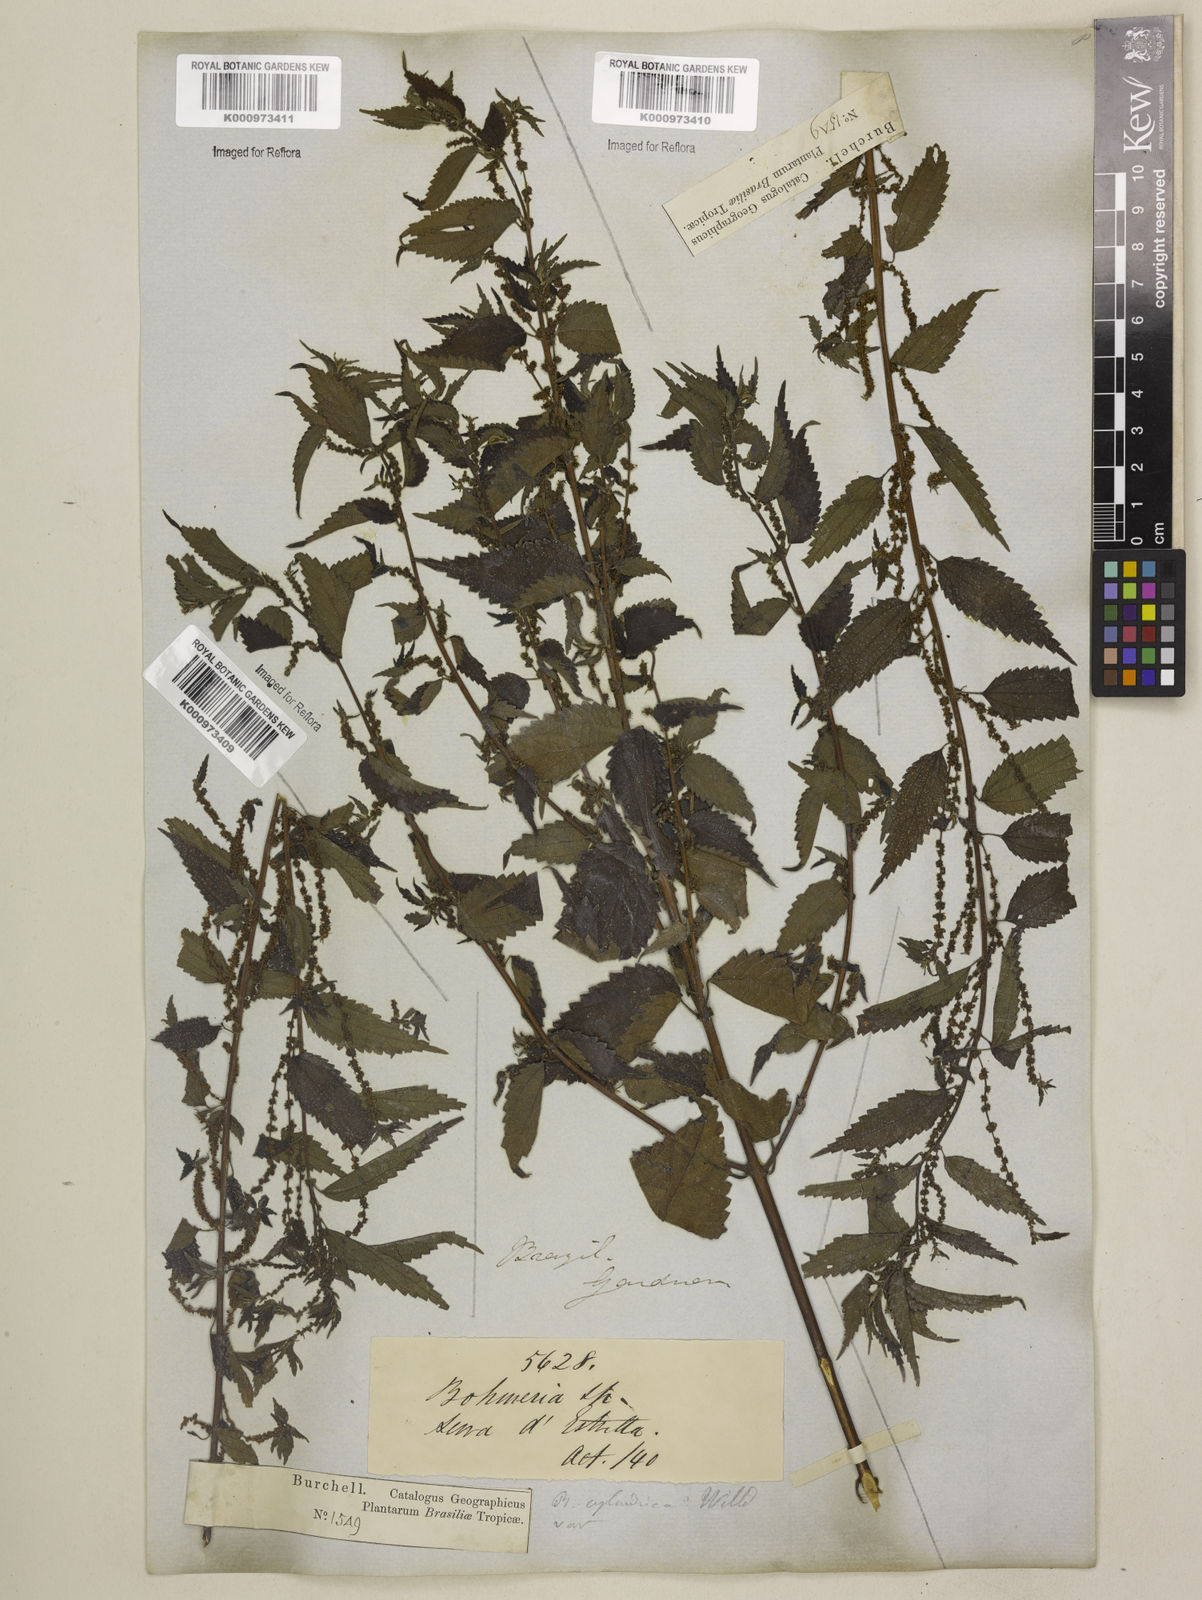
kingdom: Plantae
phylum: Tracheophyta
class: Magnoliopsida
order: Rosales
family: Urticaceae
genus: Boehmeria
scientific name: Boehmeria cylindrica
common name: Bog-hemp
